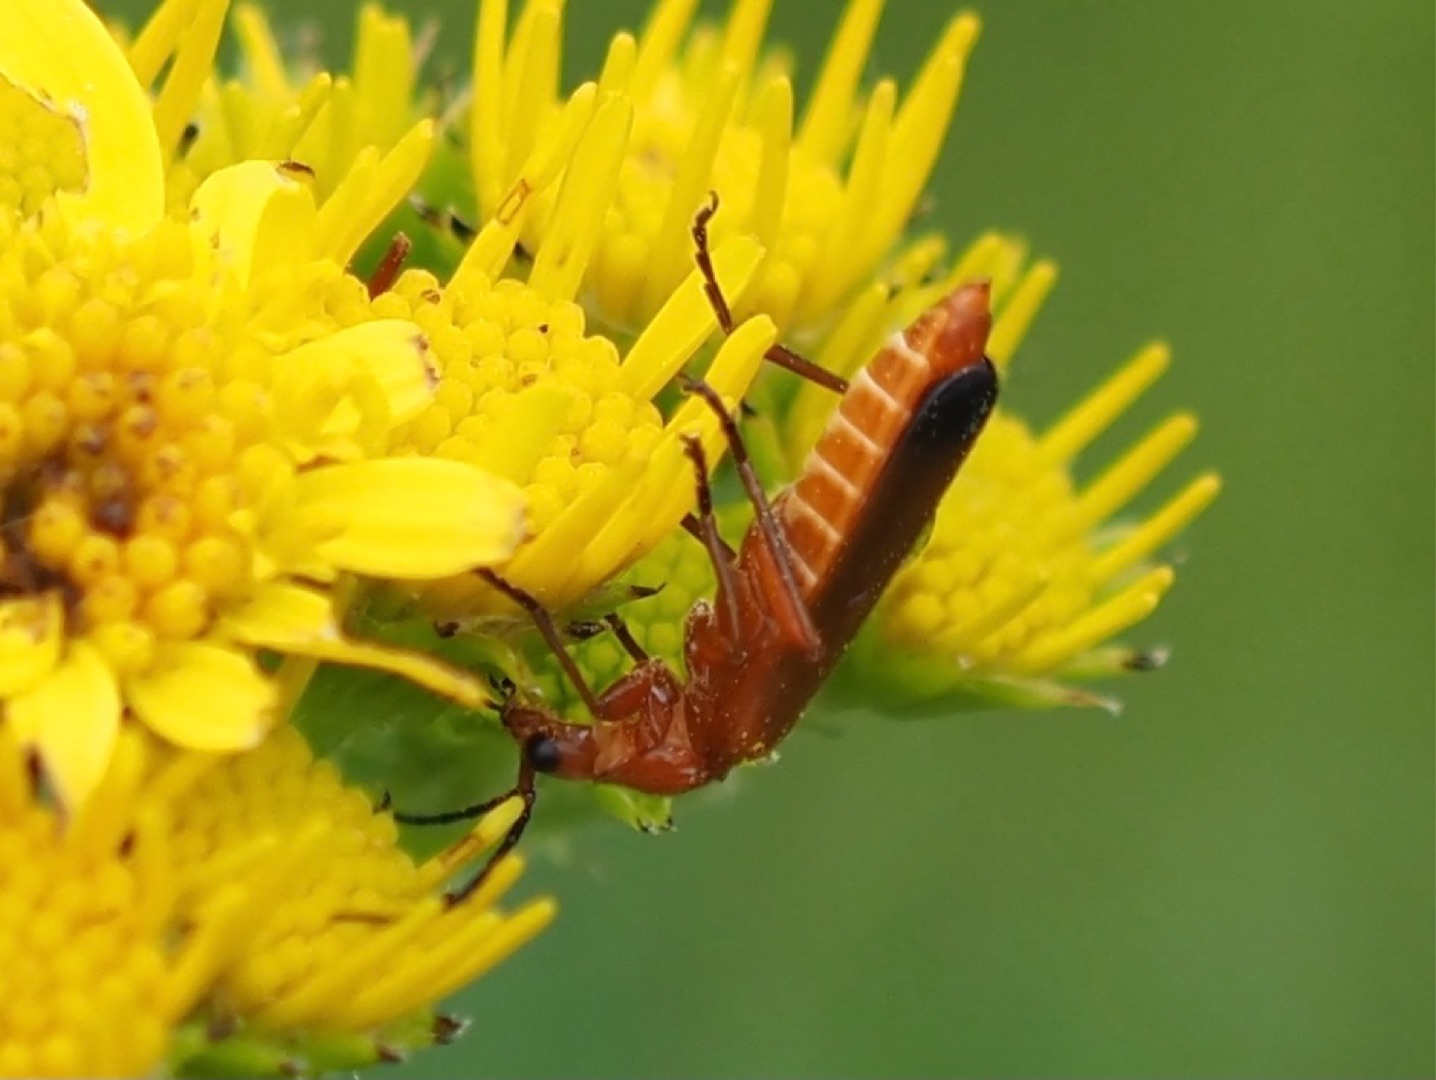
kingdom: Animalia
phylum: Arthropoda
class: Insecta
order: Coleoptera
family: Cantharidae
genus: Rhagonycha
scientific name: Rhagonycha fulva
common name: Præstebille
